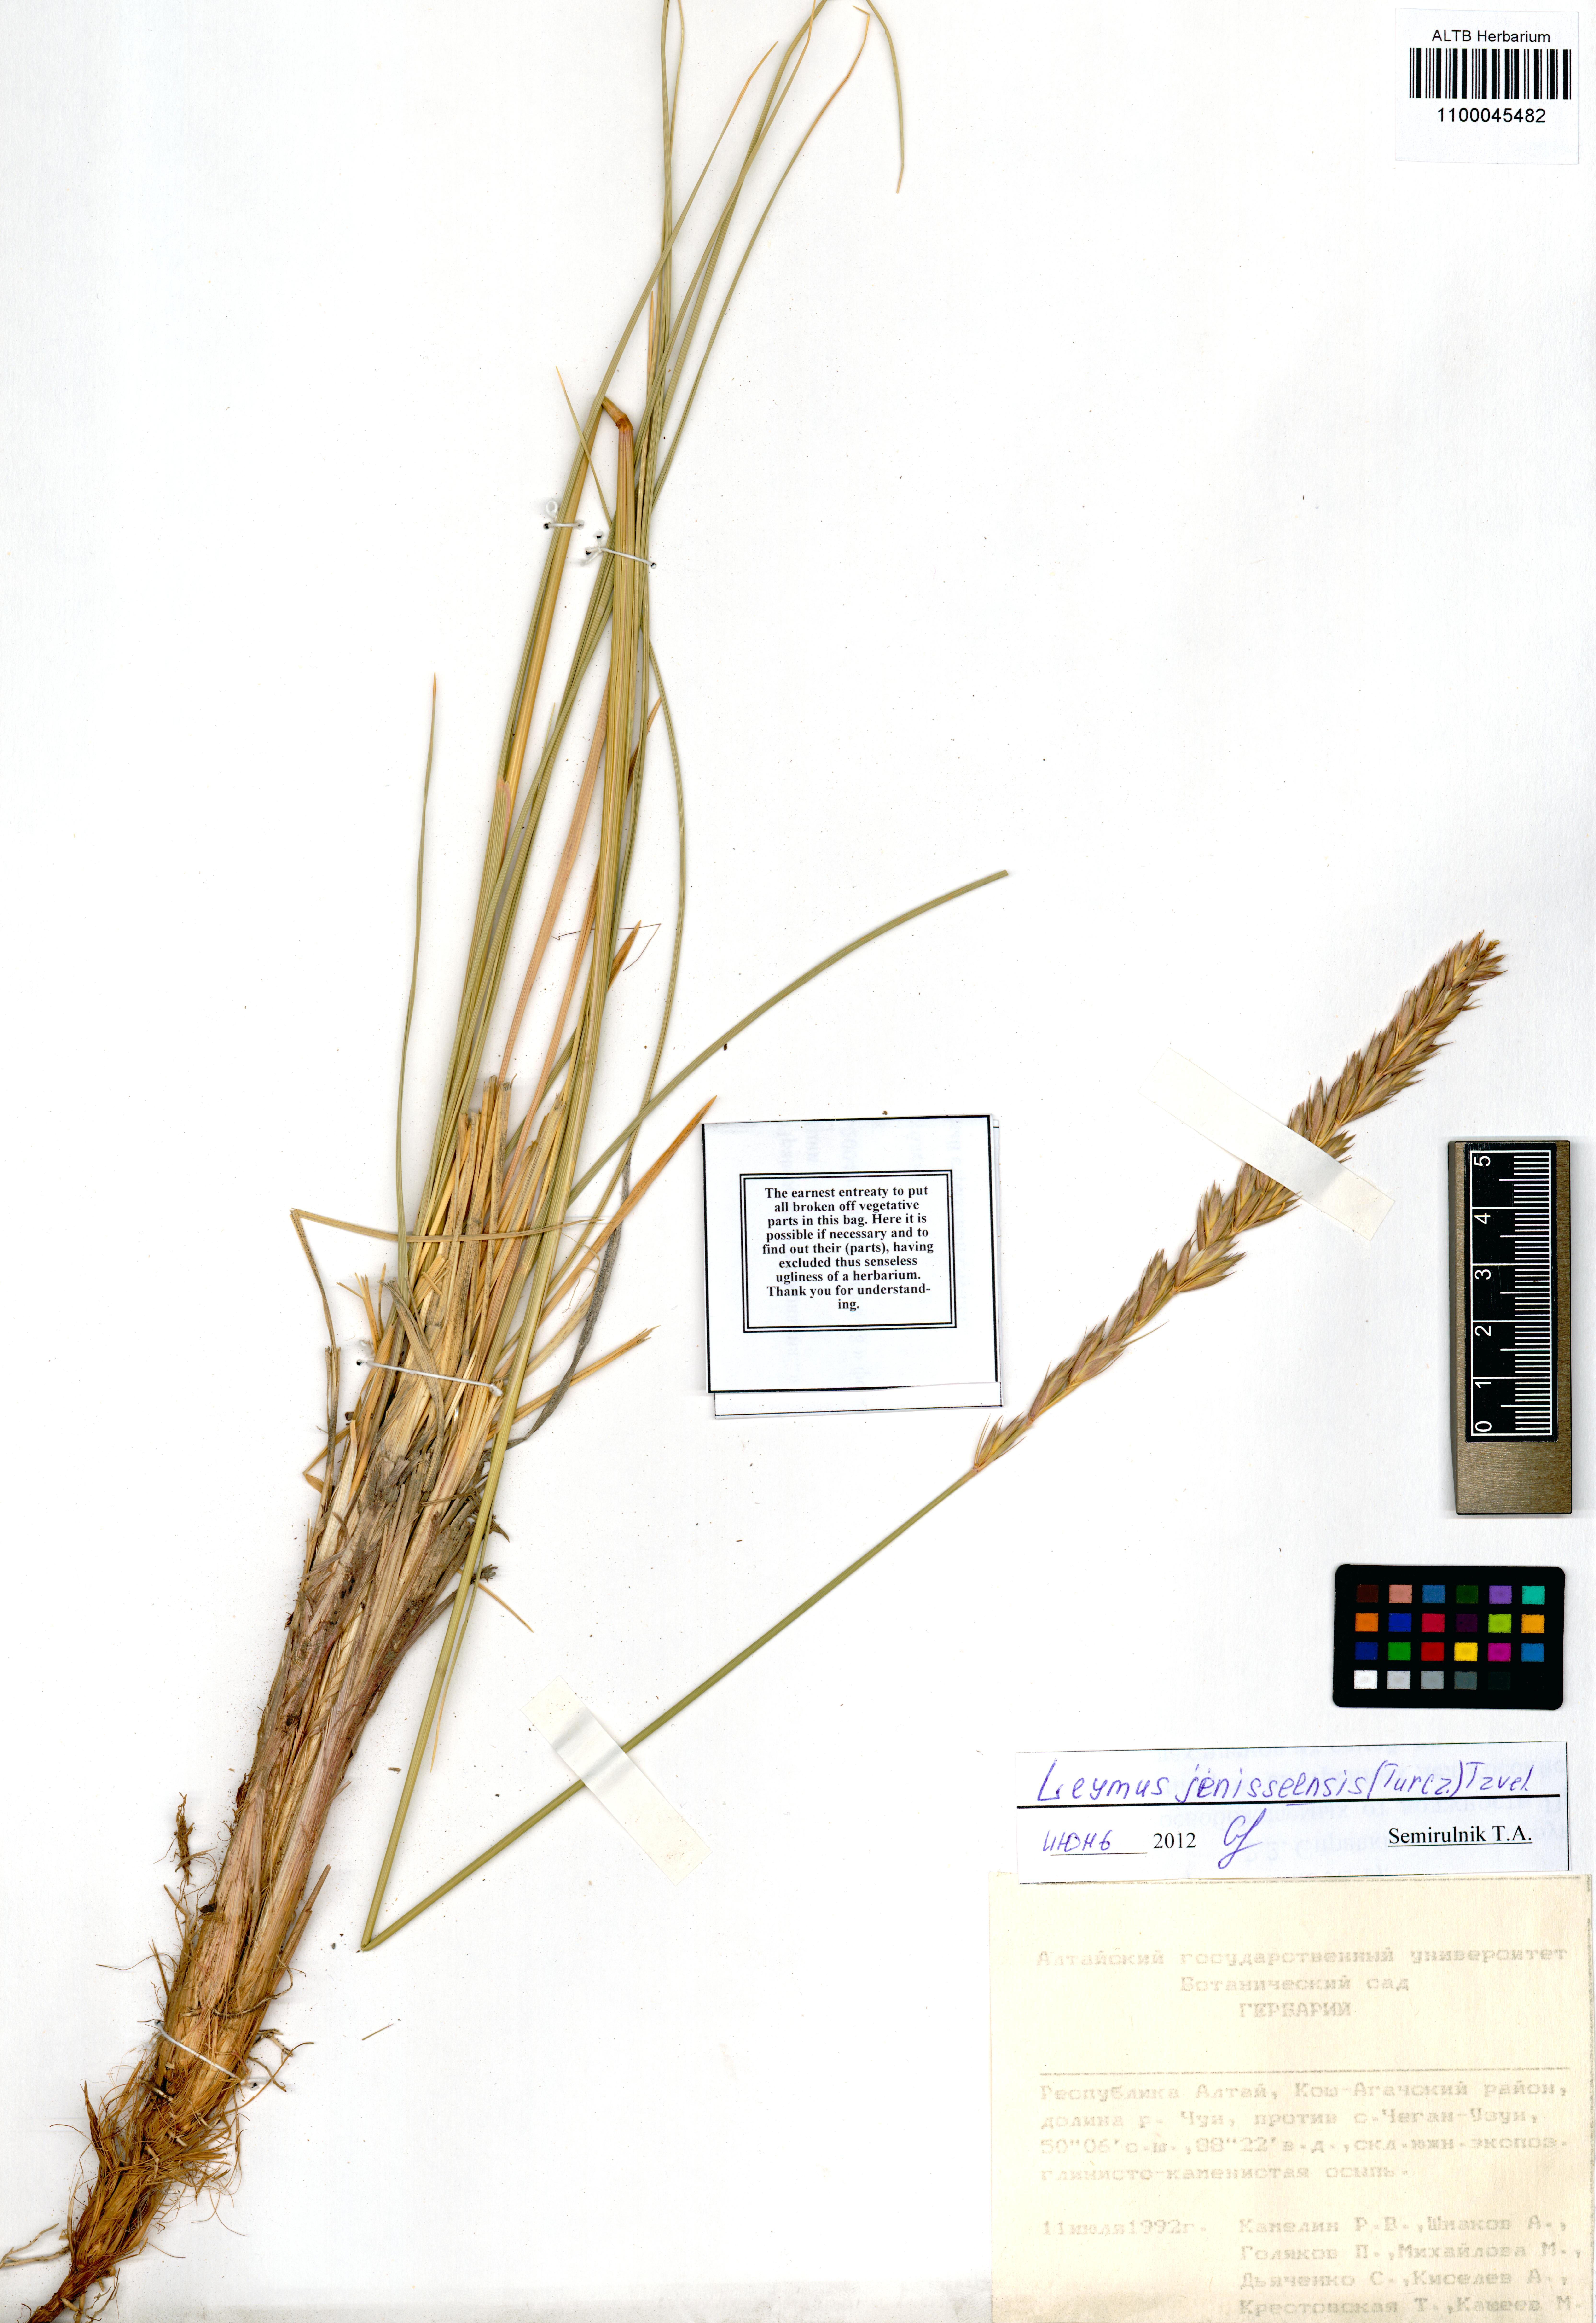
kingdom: Plantae
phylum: Tracheophyta
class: Liliopsida
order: Poales
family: Poaceae
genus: Leymus
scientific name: Leymus jenisseiensis
